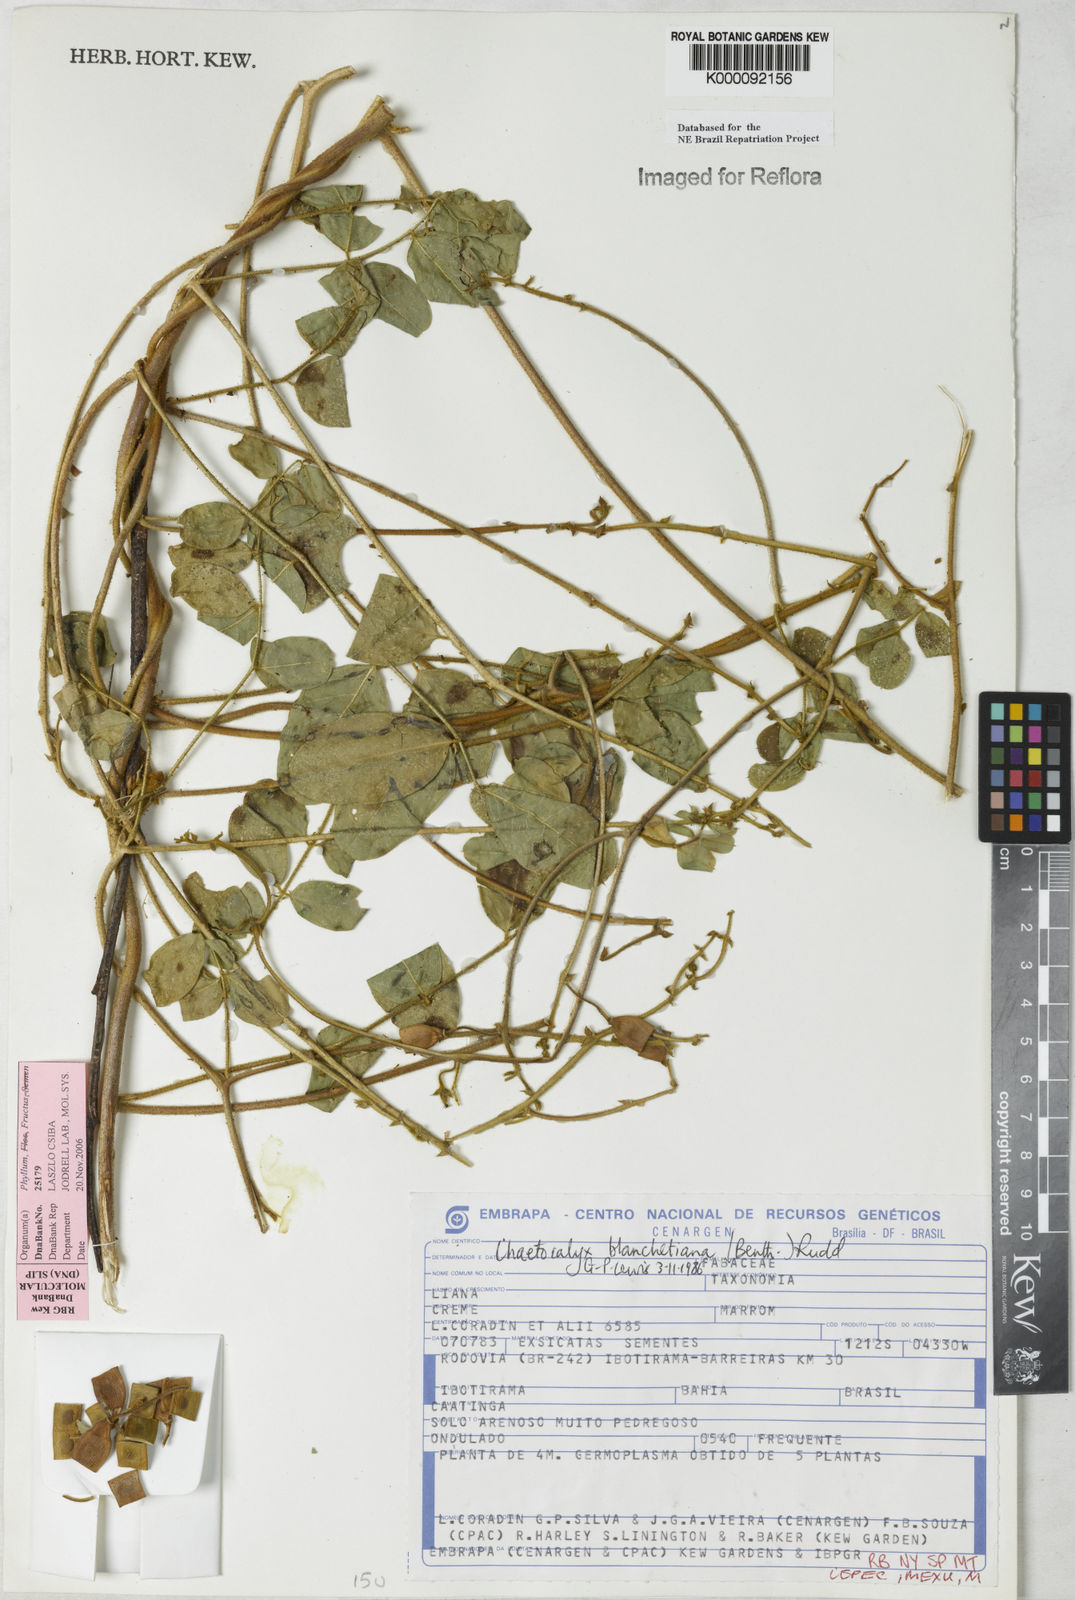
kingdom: Plantae
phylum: Tracheophyta
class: Magnoliopsida
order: Fabales
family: Fabaceae
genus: Nissolia
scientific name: Nissolia blanchetiana
